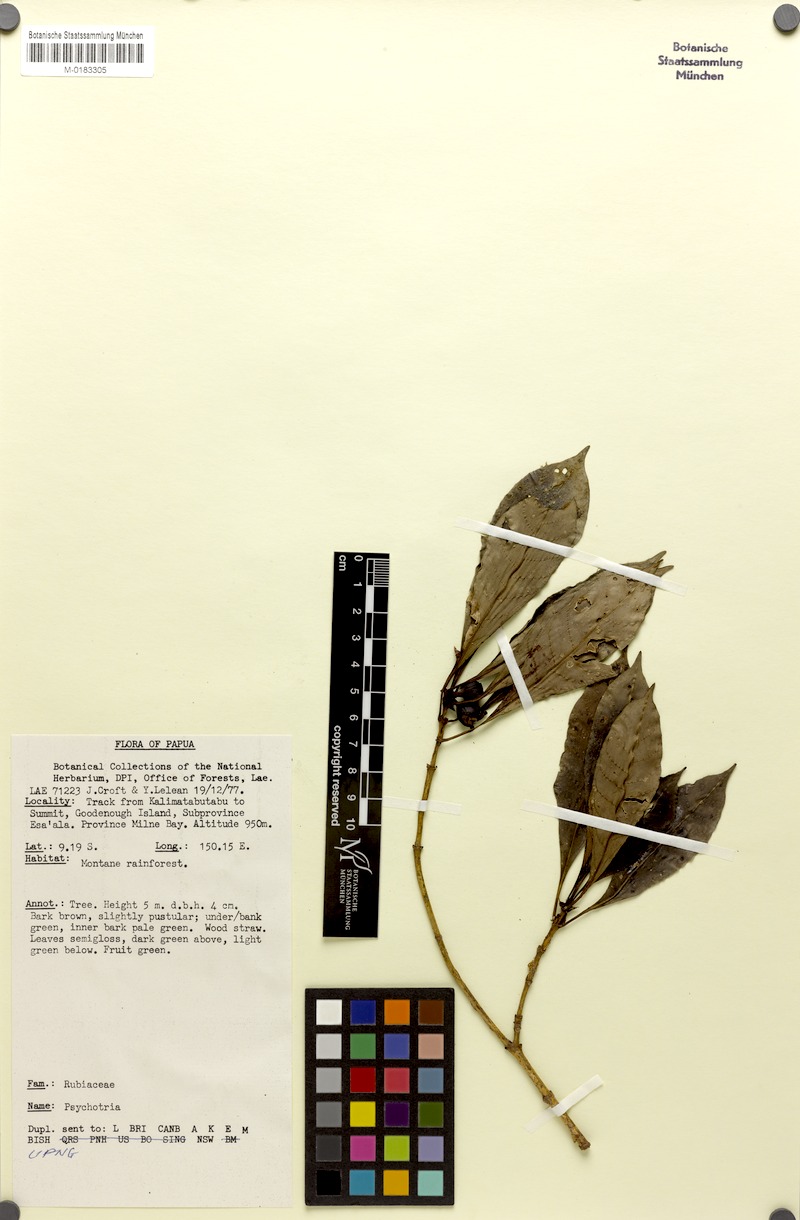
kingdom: Plantae
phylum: Tracheophyta
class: Magnoliopsida
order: Gentianales
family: Rubiaceae
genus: Psychotria
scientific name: Psychotria phaeochlamysioides
